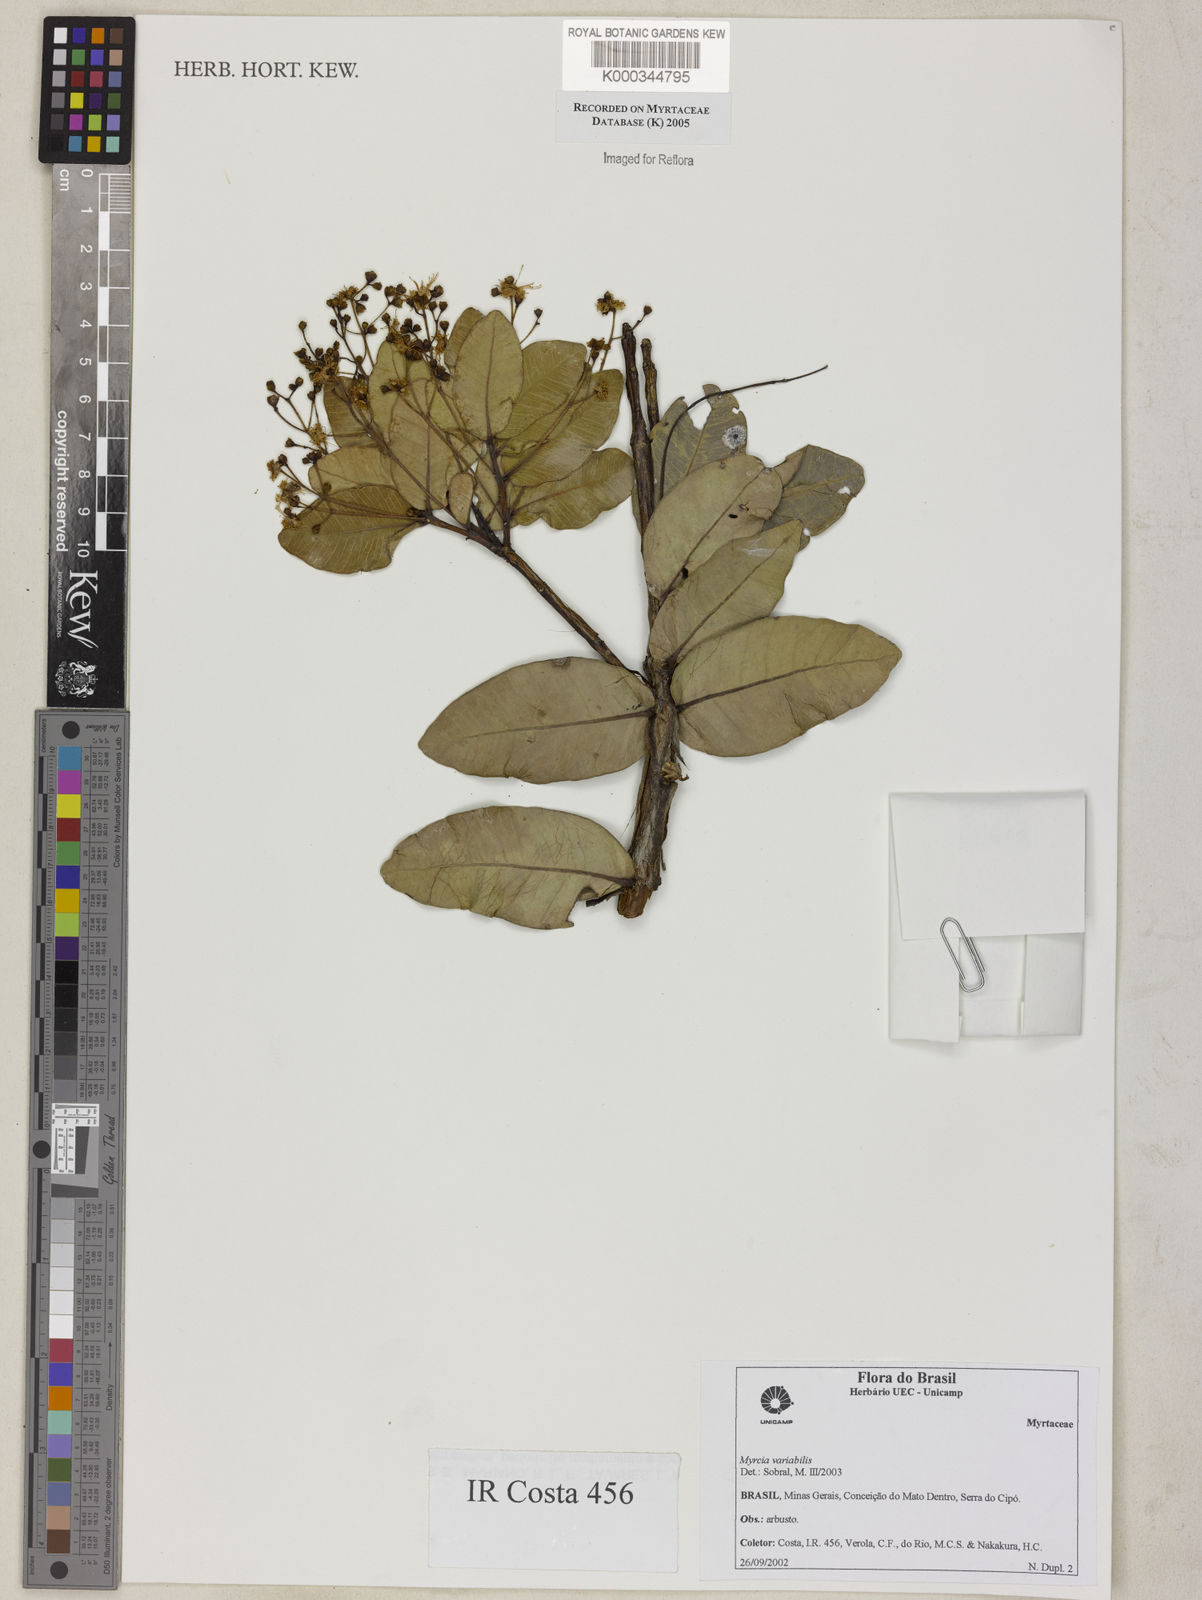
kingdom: Plantae
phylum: Tracheophyta
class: Magnoliopsida
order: Myrtales
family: Myrtaceae
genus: Myrcia
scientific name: Myrcia variabilis
